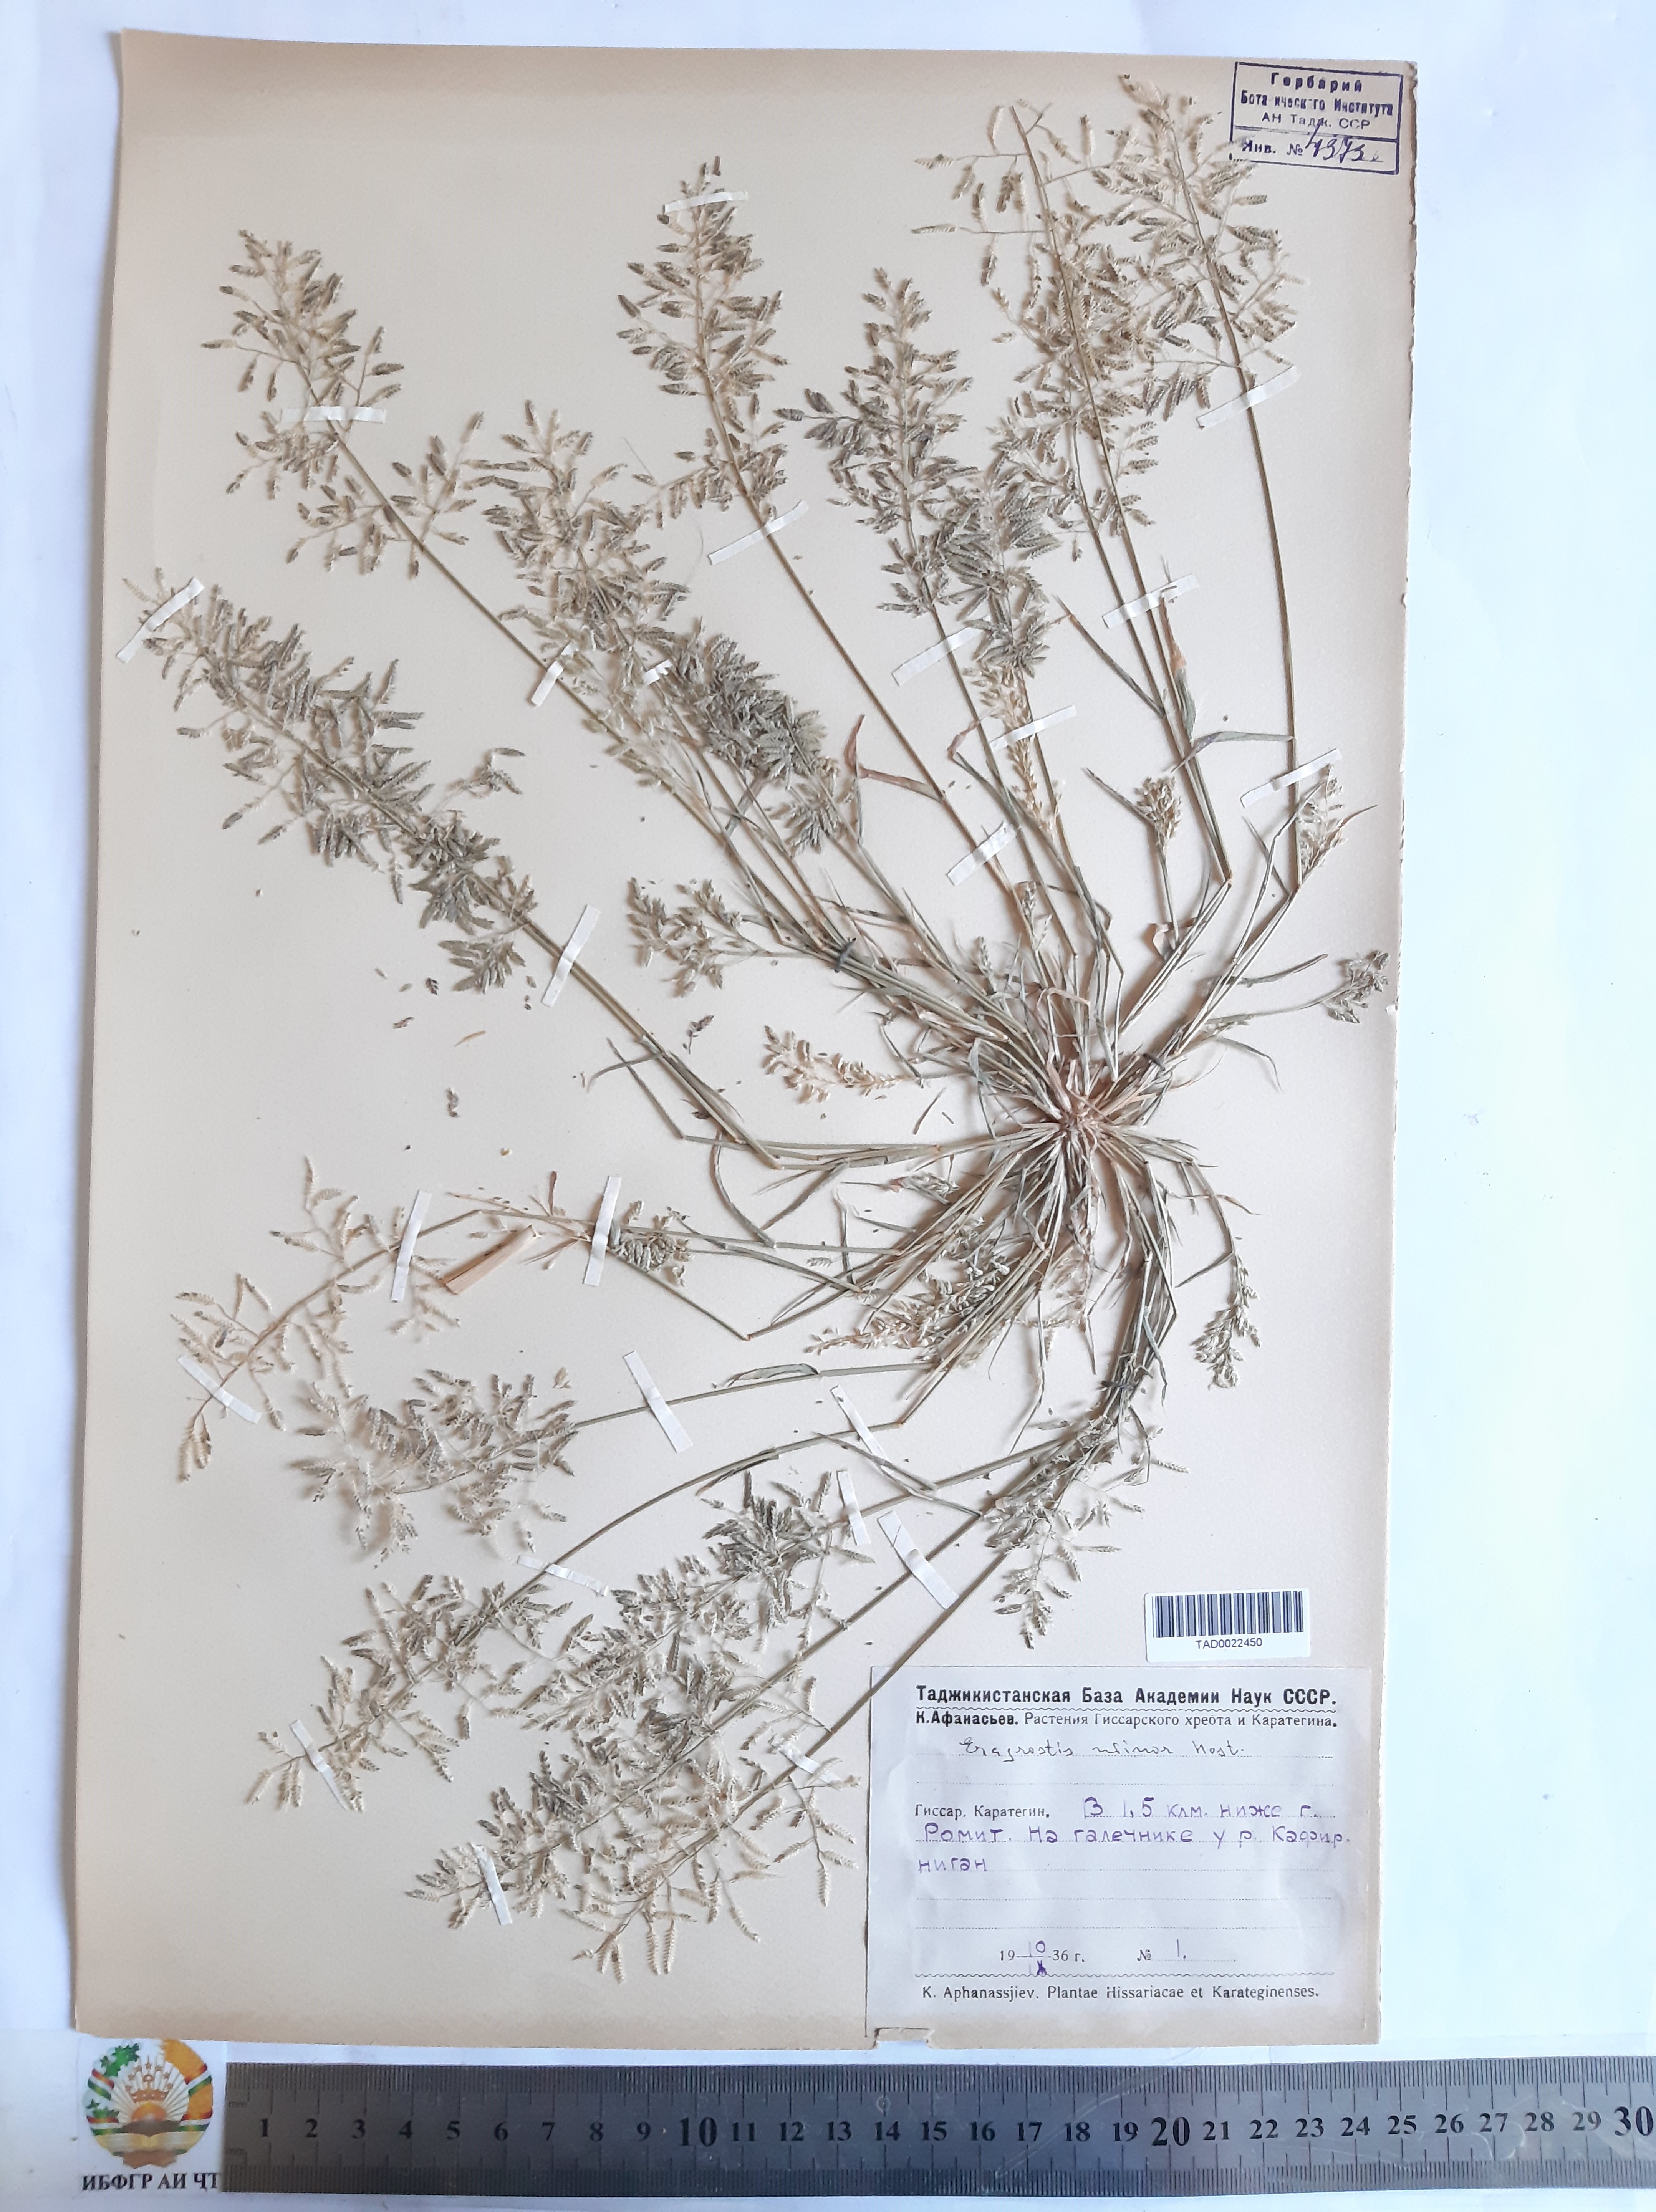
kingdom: Plantae
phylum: Tracheophyta
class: Liliopsida
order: Poales
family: Poaceae
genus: Eragrostis
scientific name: Eragrostis minor
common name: Small love-grass
